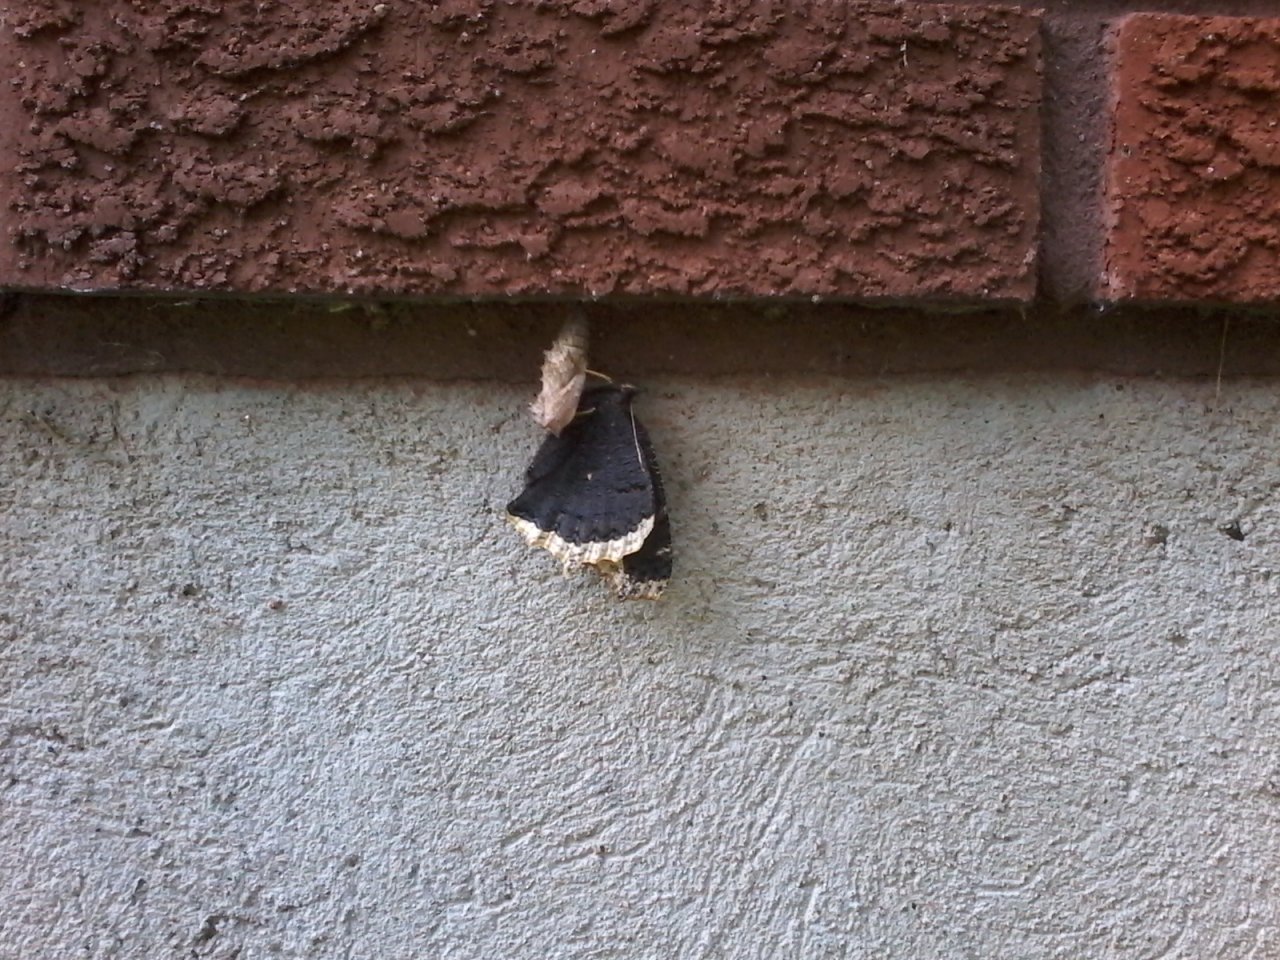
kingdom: Animalia
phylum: Arthropoda
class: Insecta
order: Lepidoptera
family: Nymphalidae
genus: Nymphalis
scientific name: Nymphalis antiopa
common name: Mourning Cloak
